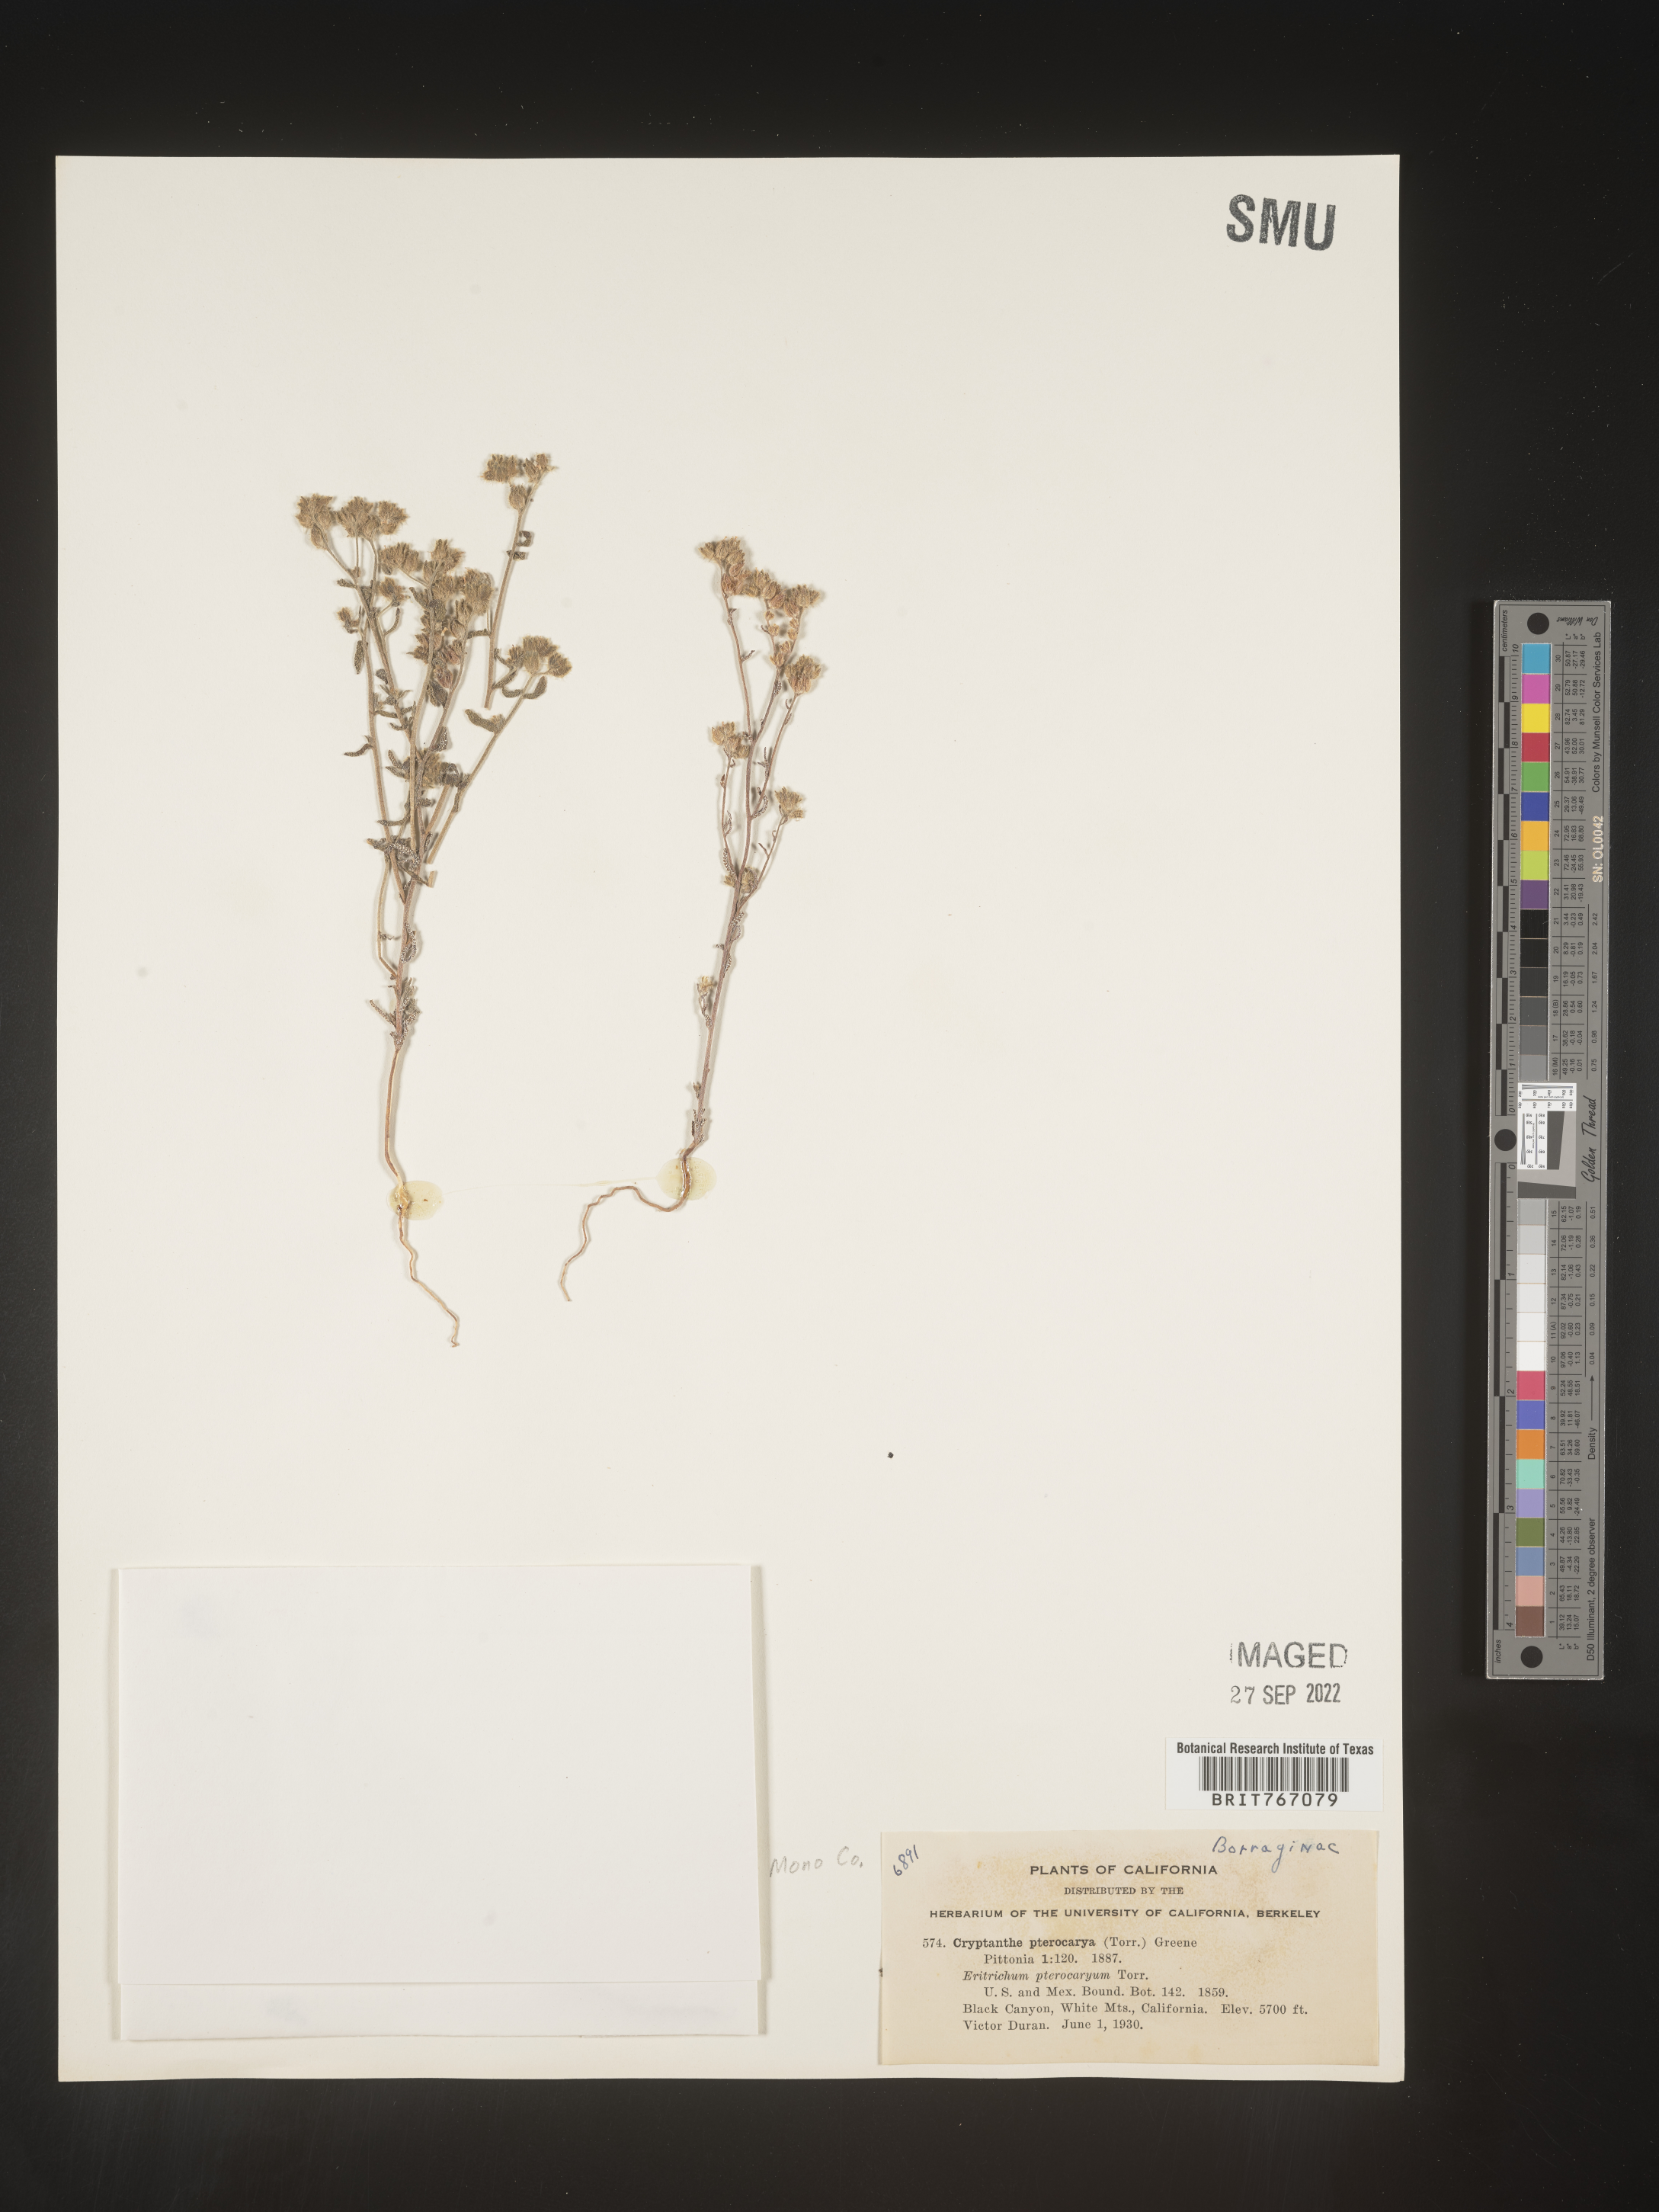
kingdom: Plantae
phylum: Tracheophyta
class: Magnoliopsida
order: Boraginales
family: Boraginaceae
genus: Cryptantha
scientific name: Cryptantha pterocarya
